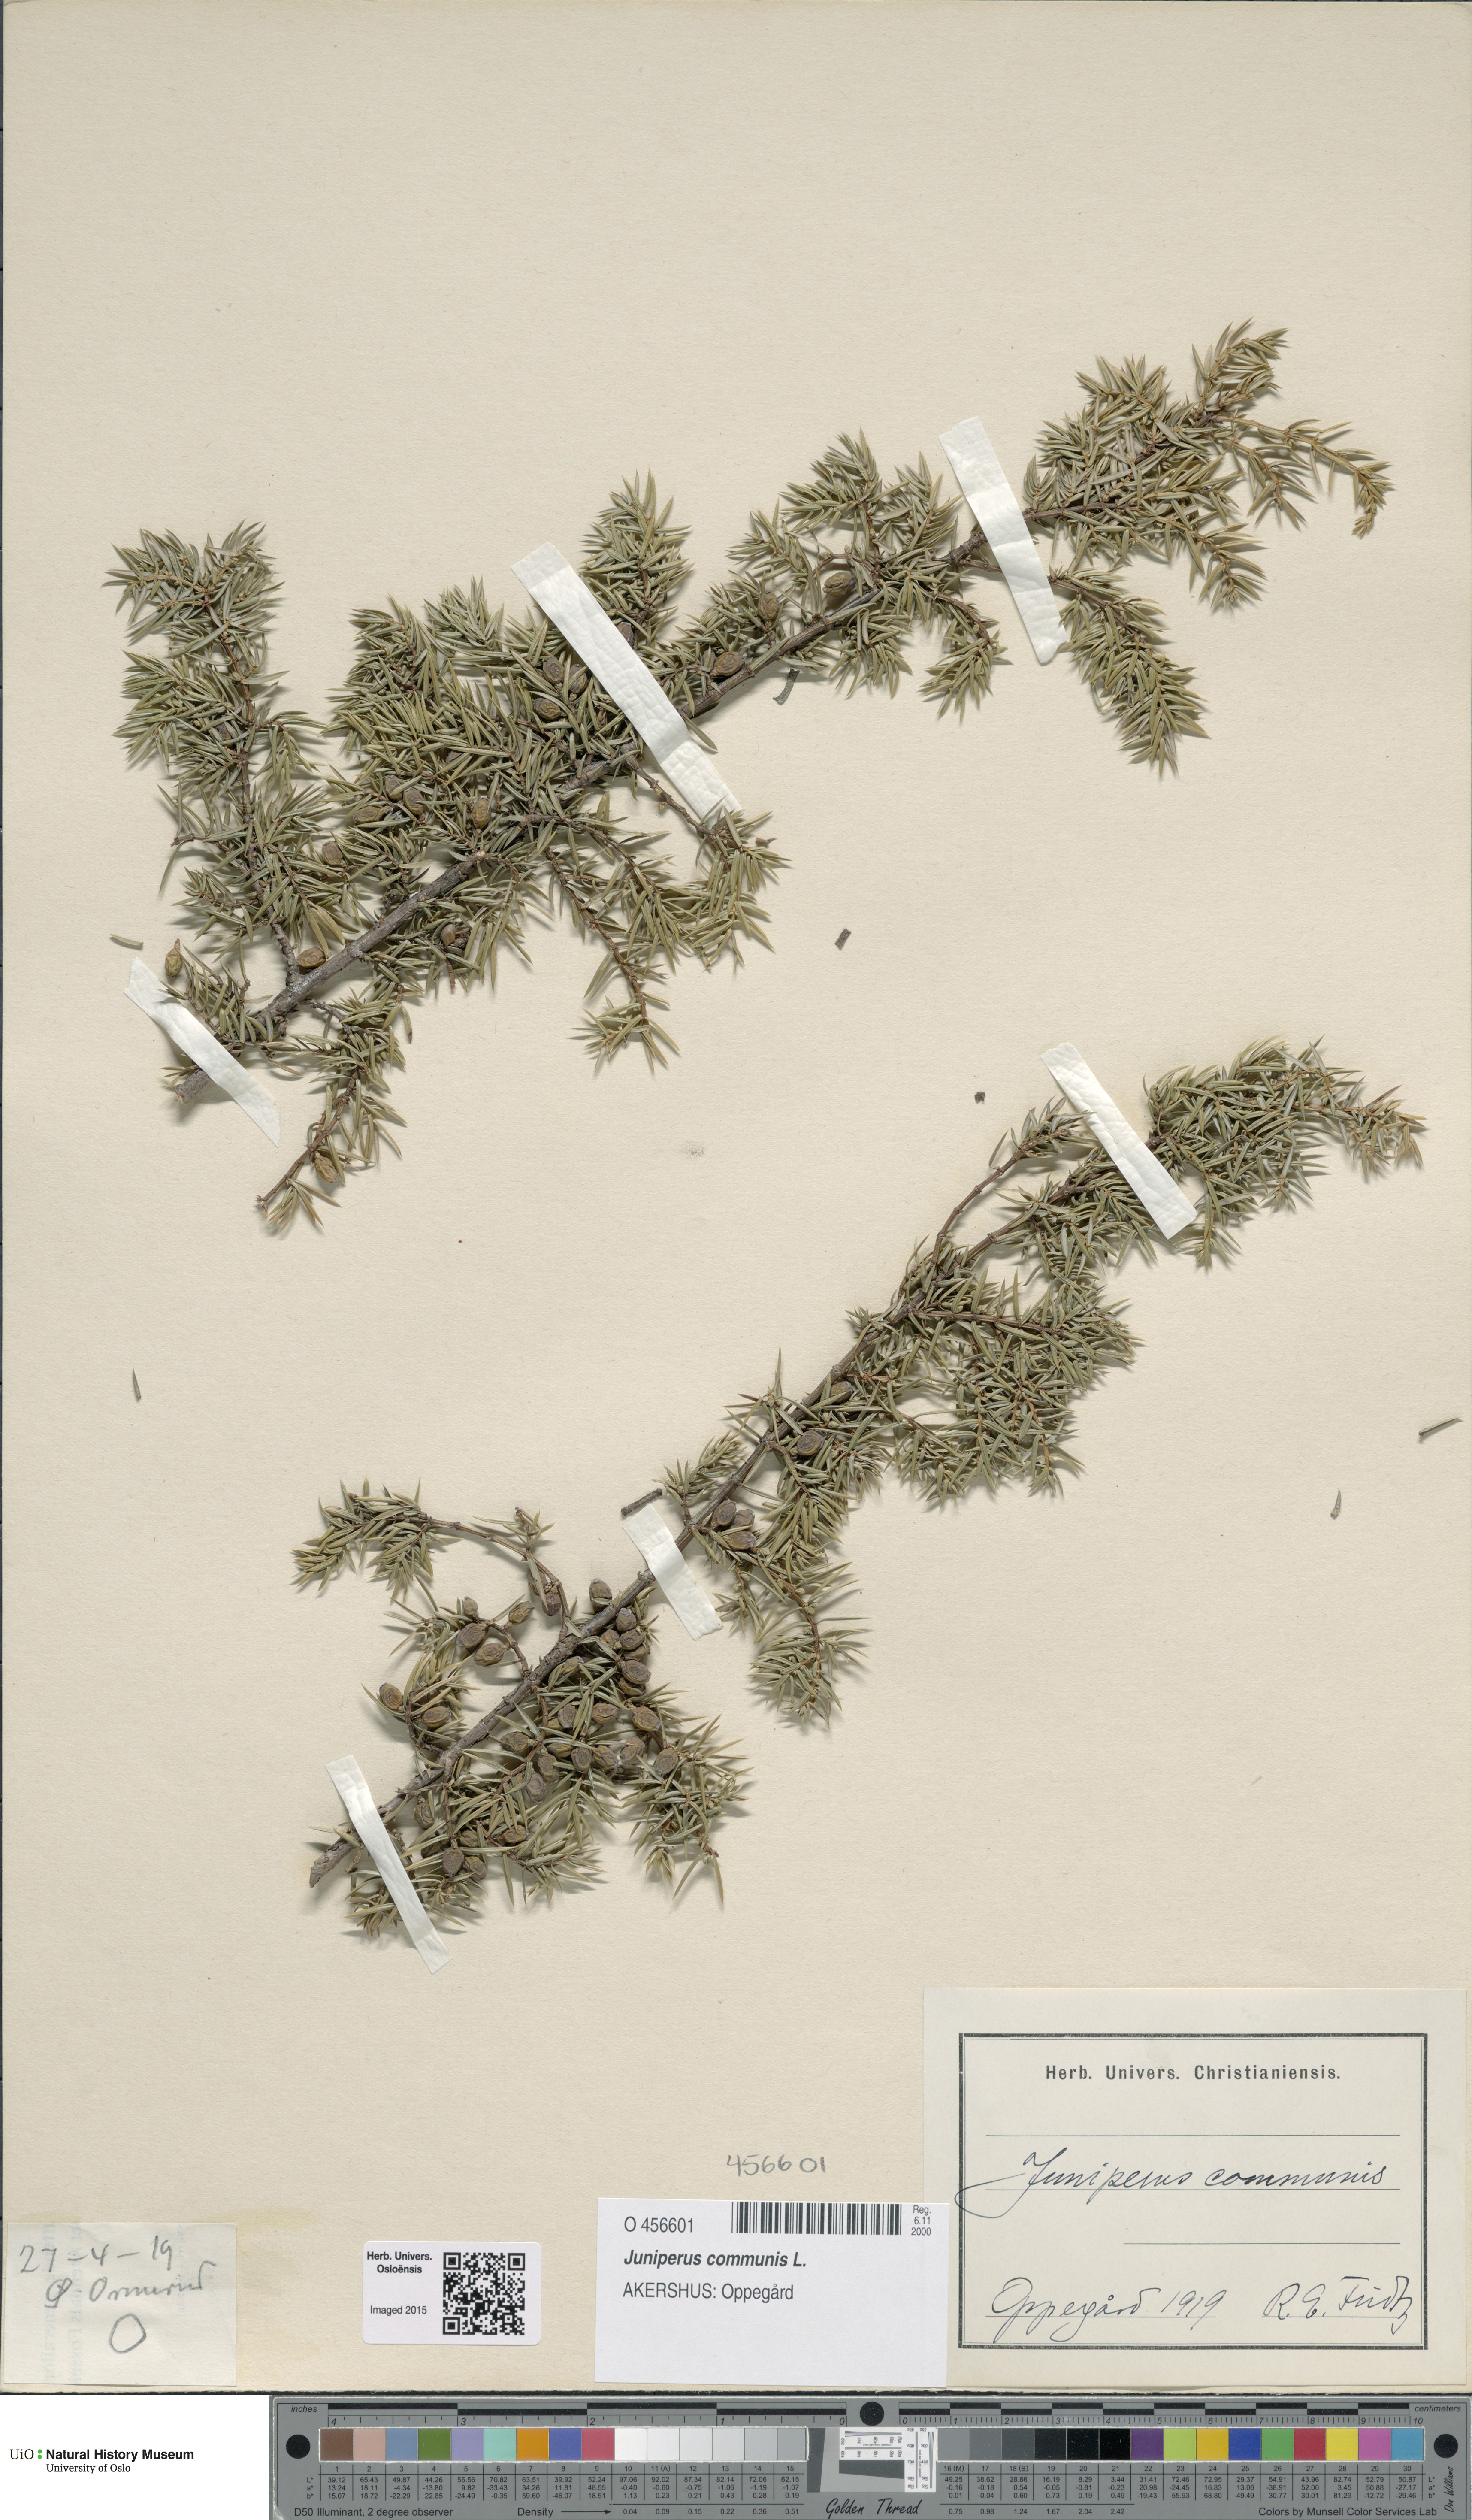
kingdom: Plantae
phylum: Tracheophyta
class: Pinopsida
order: Pinales
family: Cupressaceae
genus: Juniperus
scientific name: Juniperus communis
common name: Common juniper
